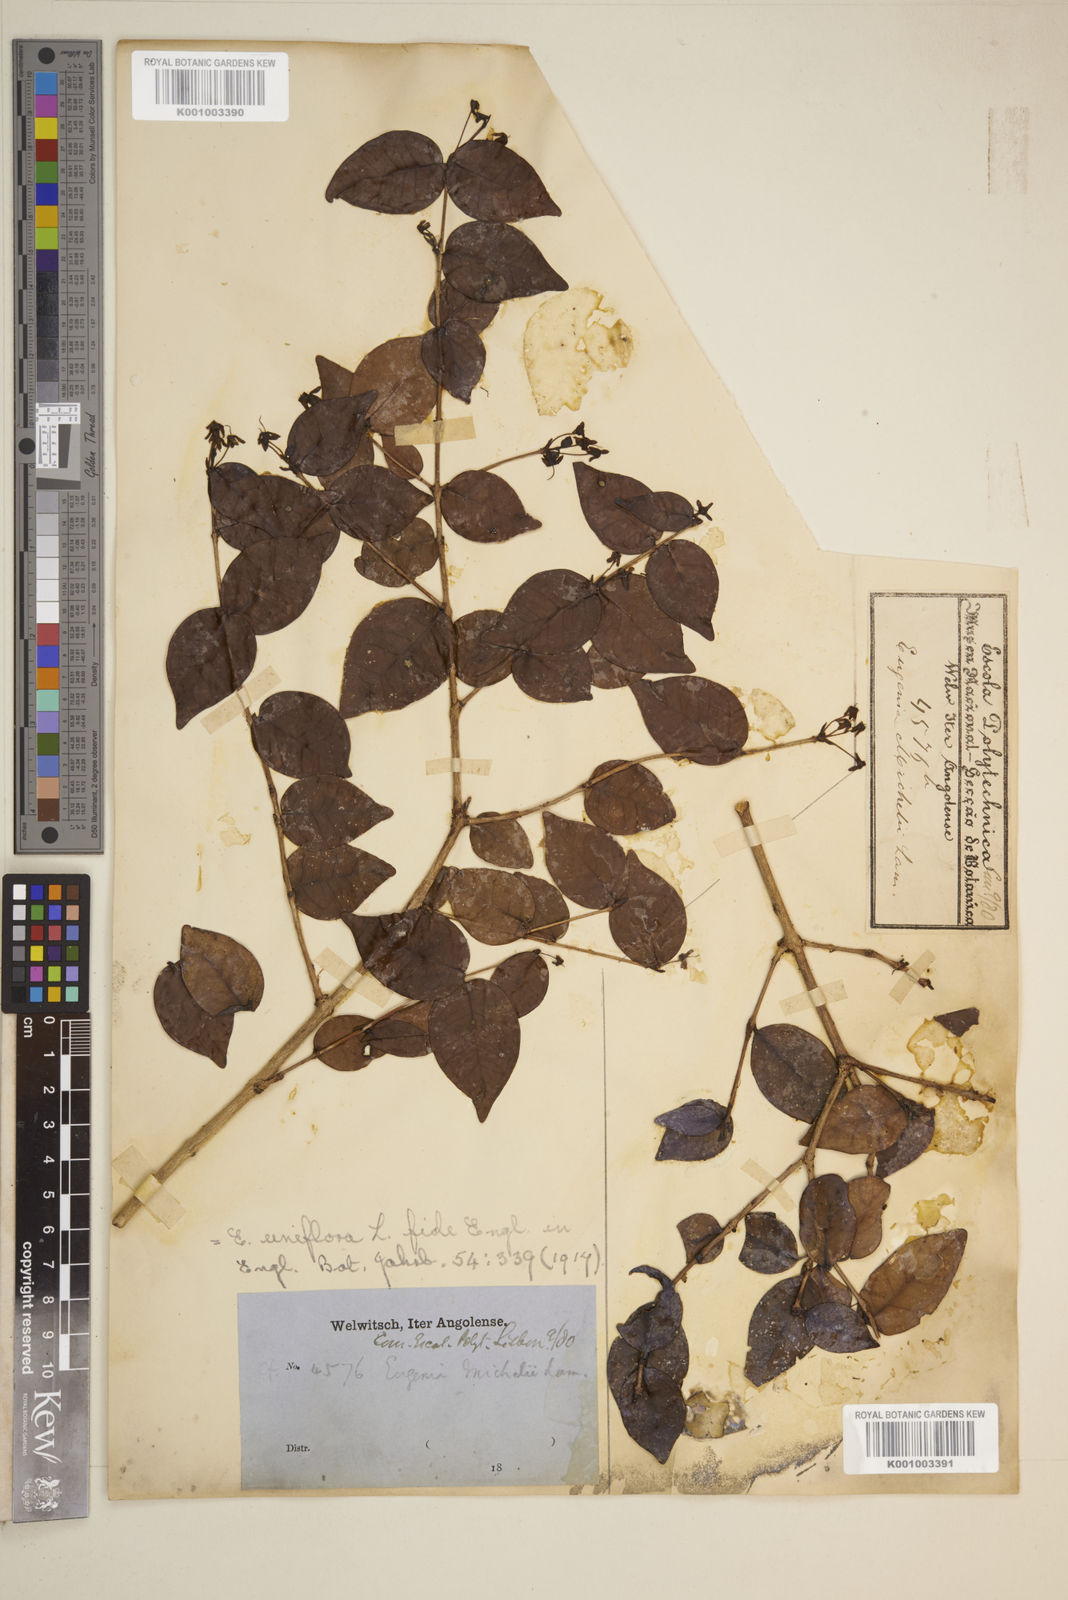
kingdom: Plantae
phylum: Tracheophyta
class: Magnoliopsida
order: Myrtales
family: Myrtaceae
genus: Eugenia
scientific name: Eugenia uniflora
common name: Surinam cherry
